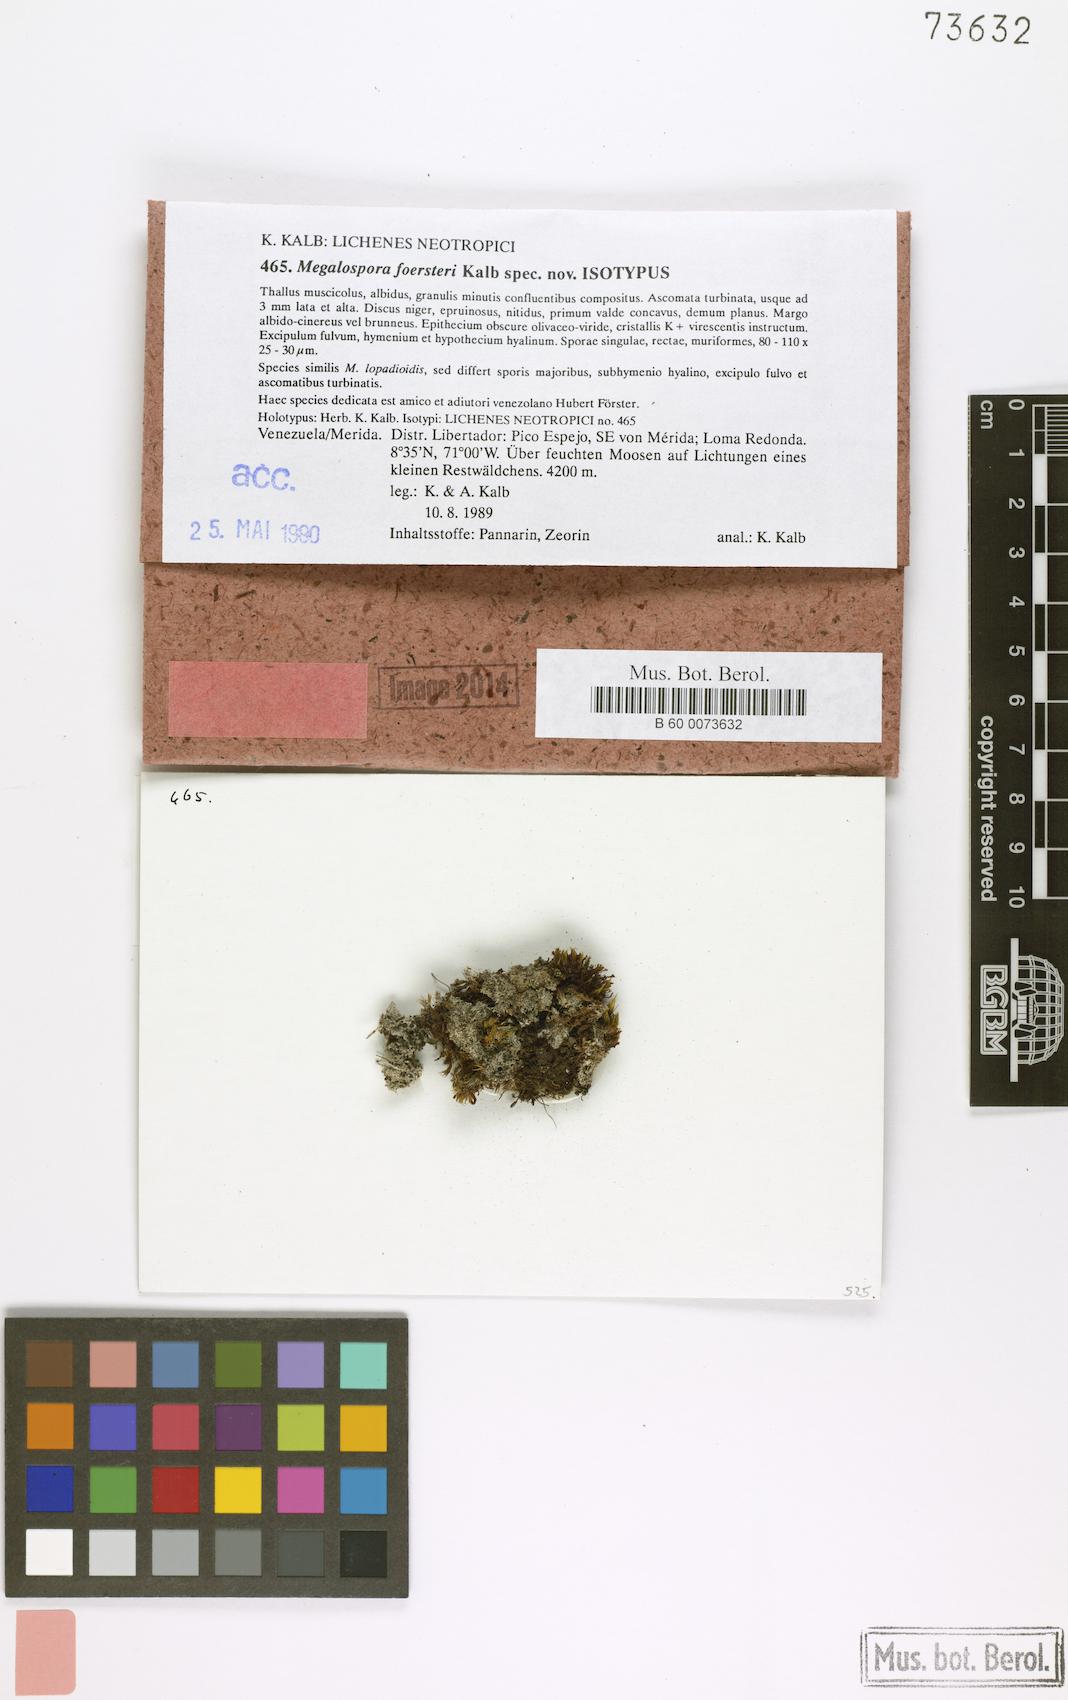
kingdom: Fungi
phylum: Ascomycota
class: Lecanoromycetes
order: Teloschistales
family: Megalosporaceae
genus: Megalospora
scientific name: Megalospora foersteri
